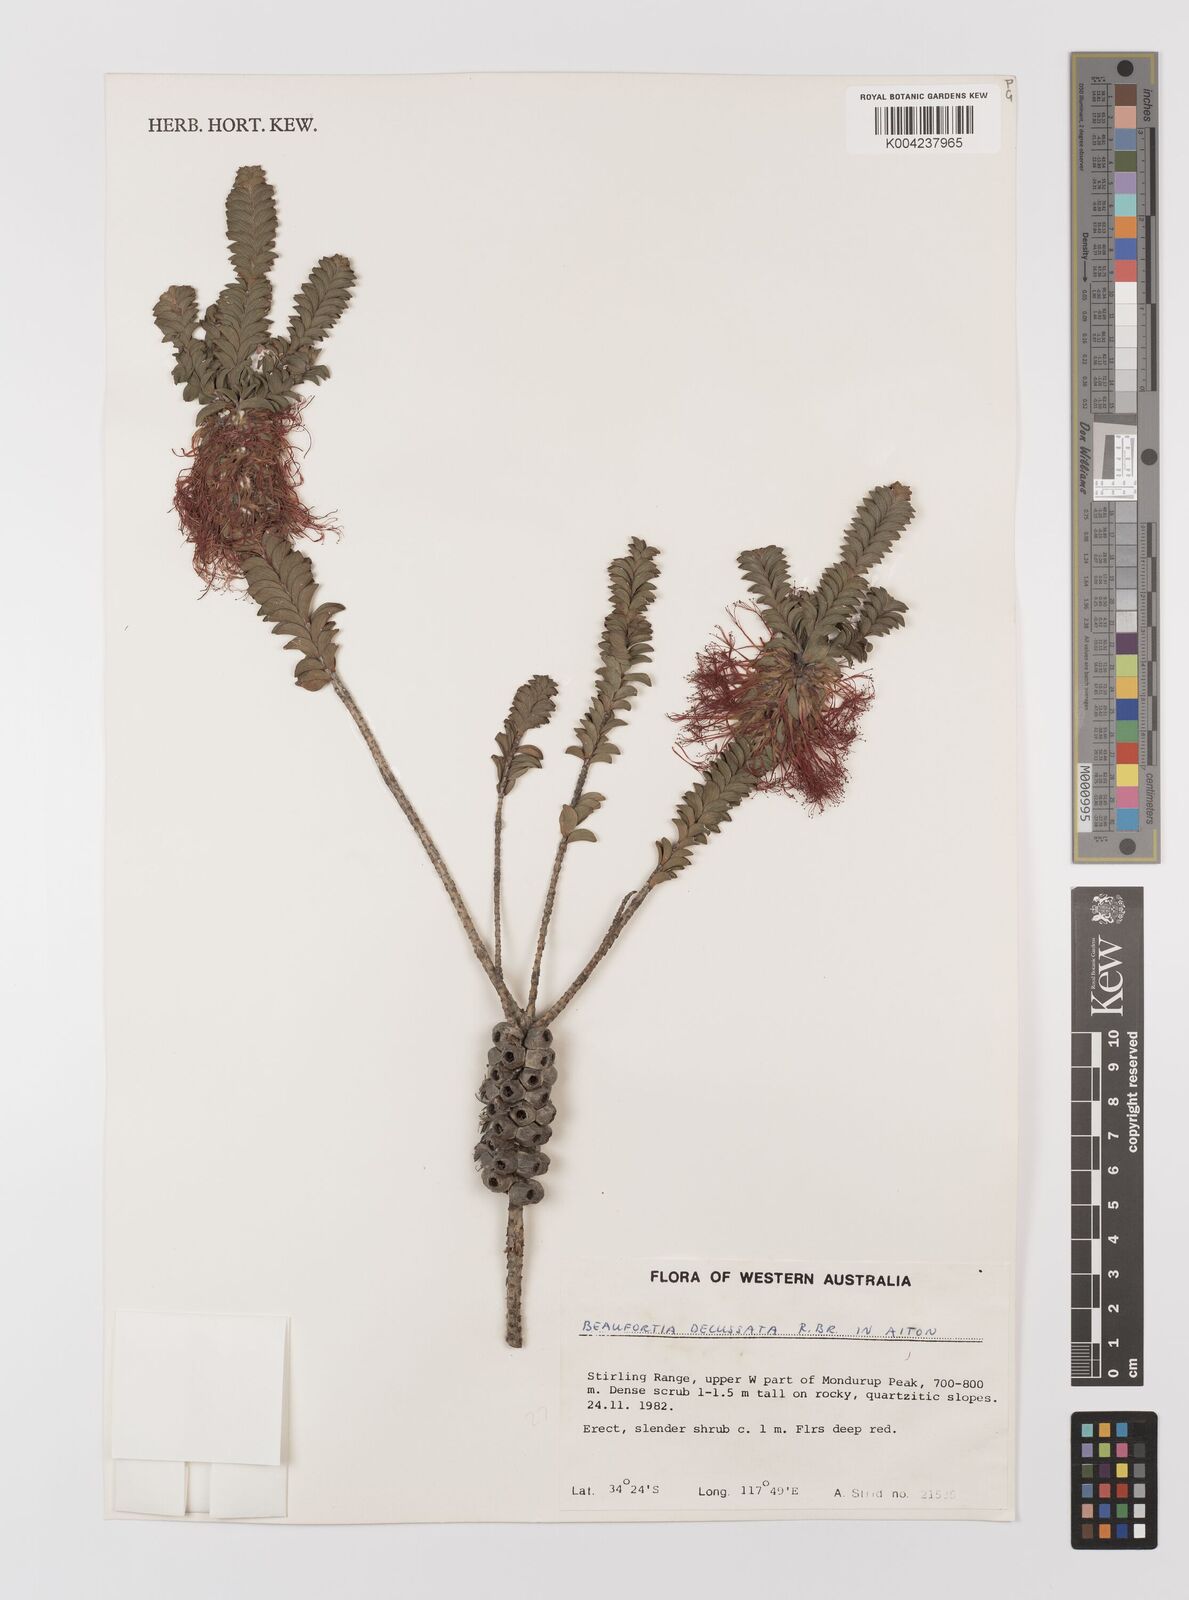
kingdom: Plantae
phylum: Tracheophyta
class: Magnoliopsida
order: Myrtales
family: Myrtaceae
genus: Melaleuca
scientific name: Melaleuca transversa
